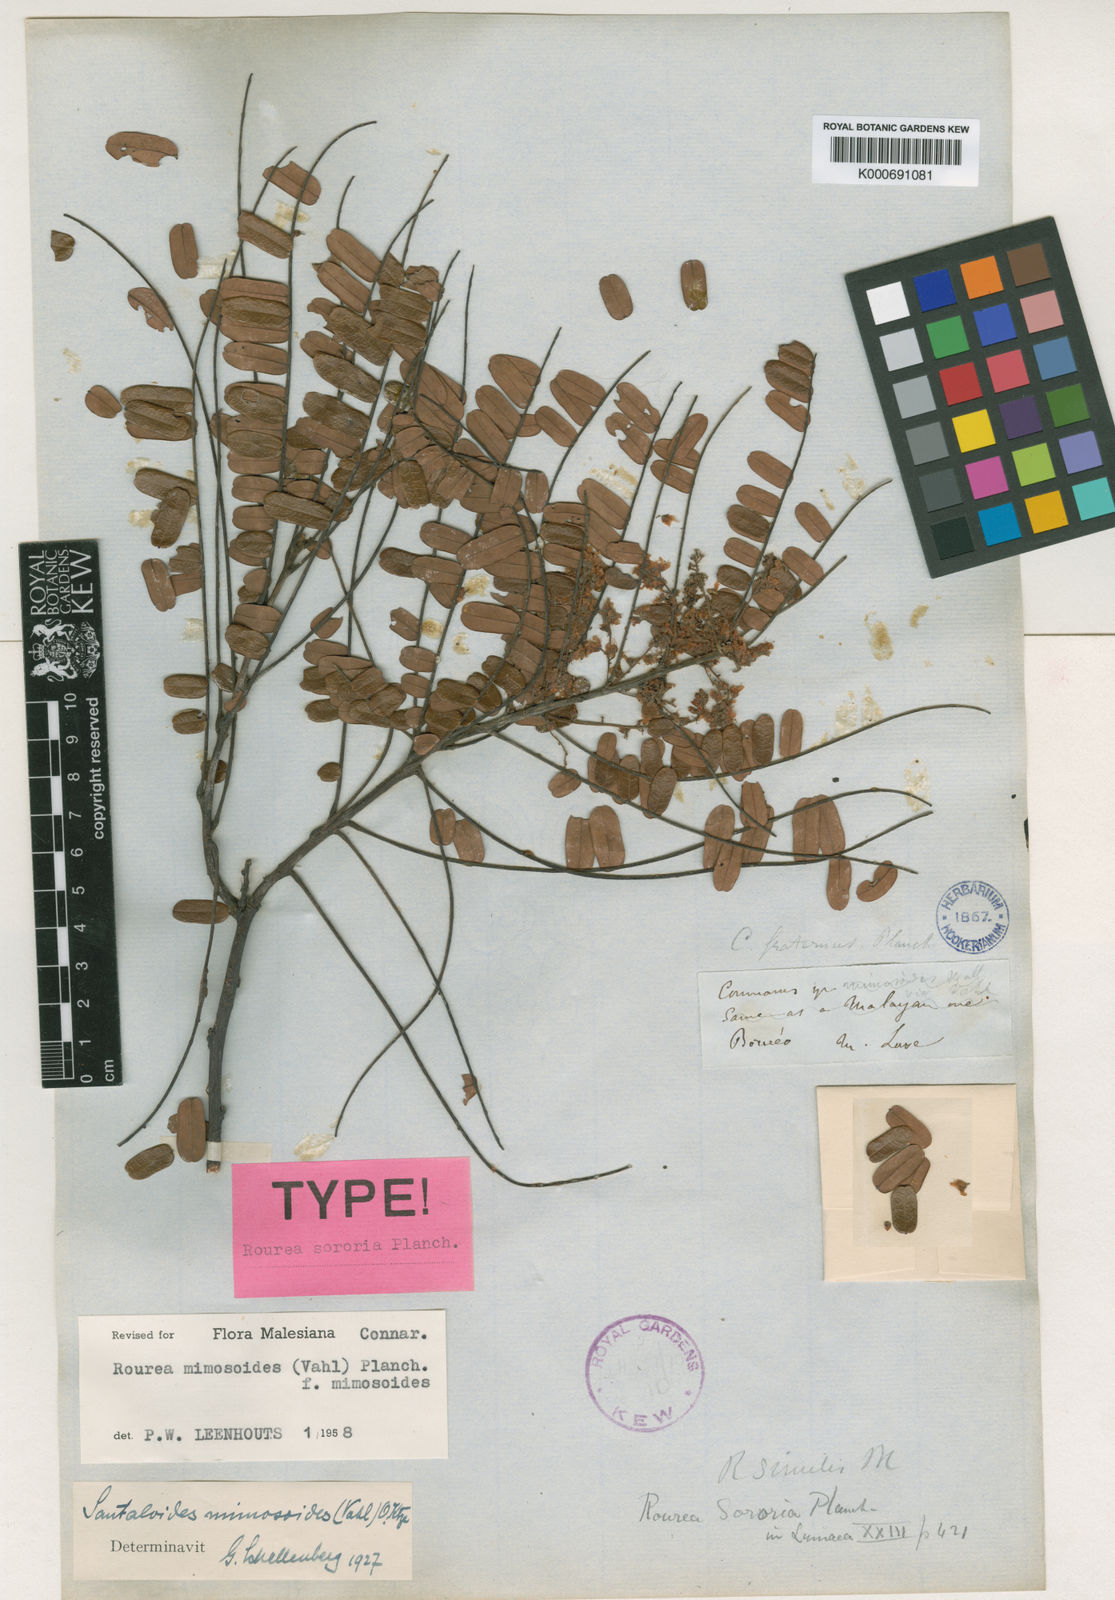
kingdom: Plantae
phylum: Tracheophyta
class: Magnoliopsida
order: Oxalidales
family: Connaraceae
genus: Rourea
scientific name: Rourea mimosoides
